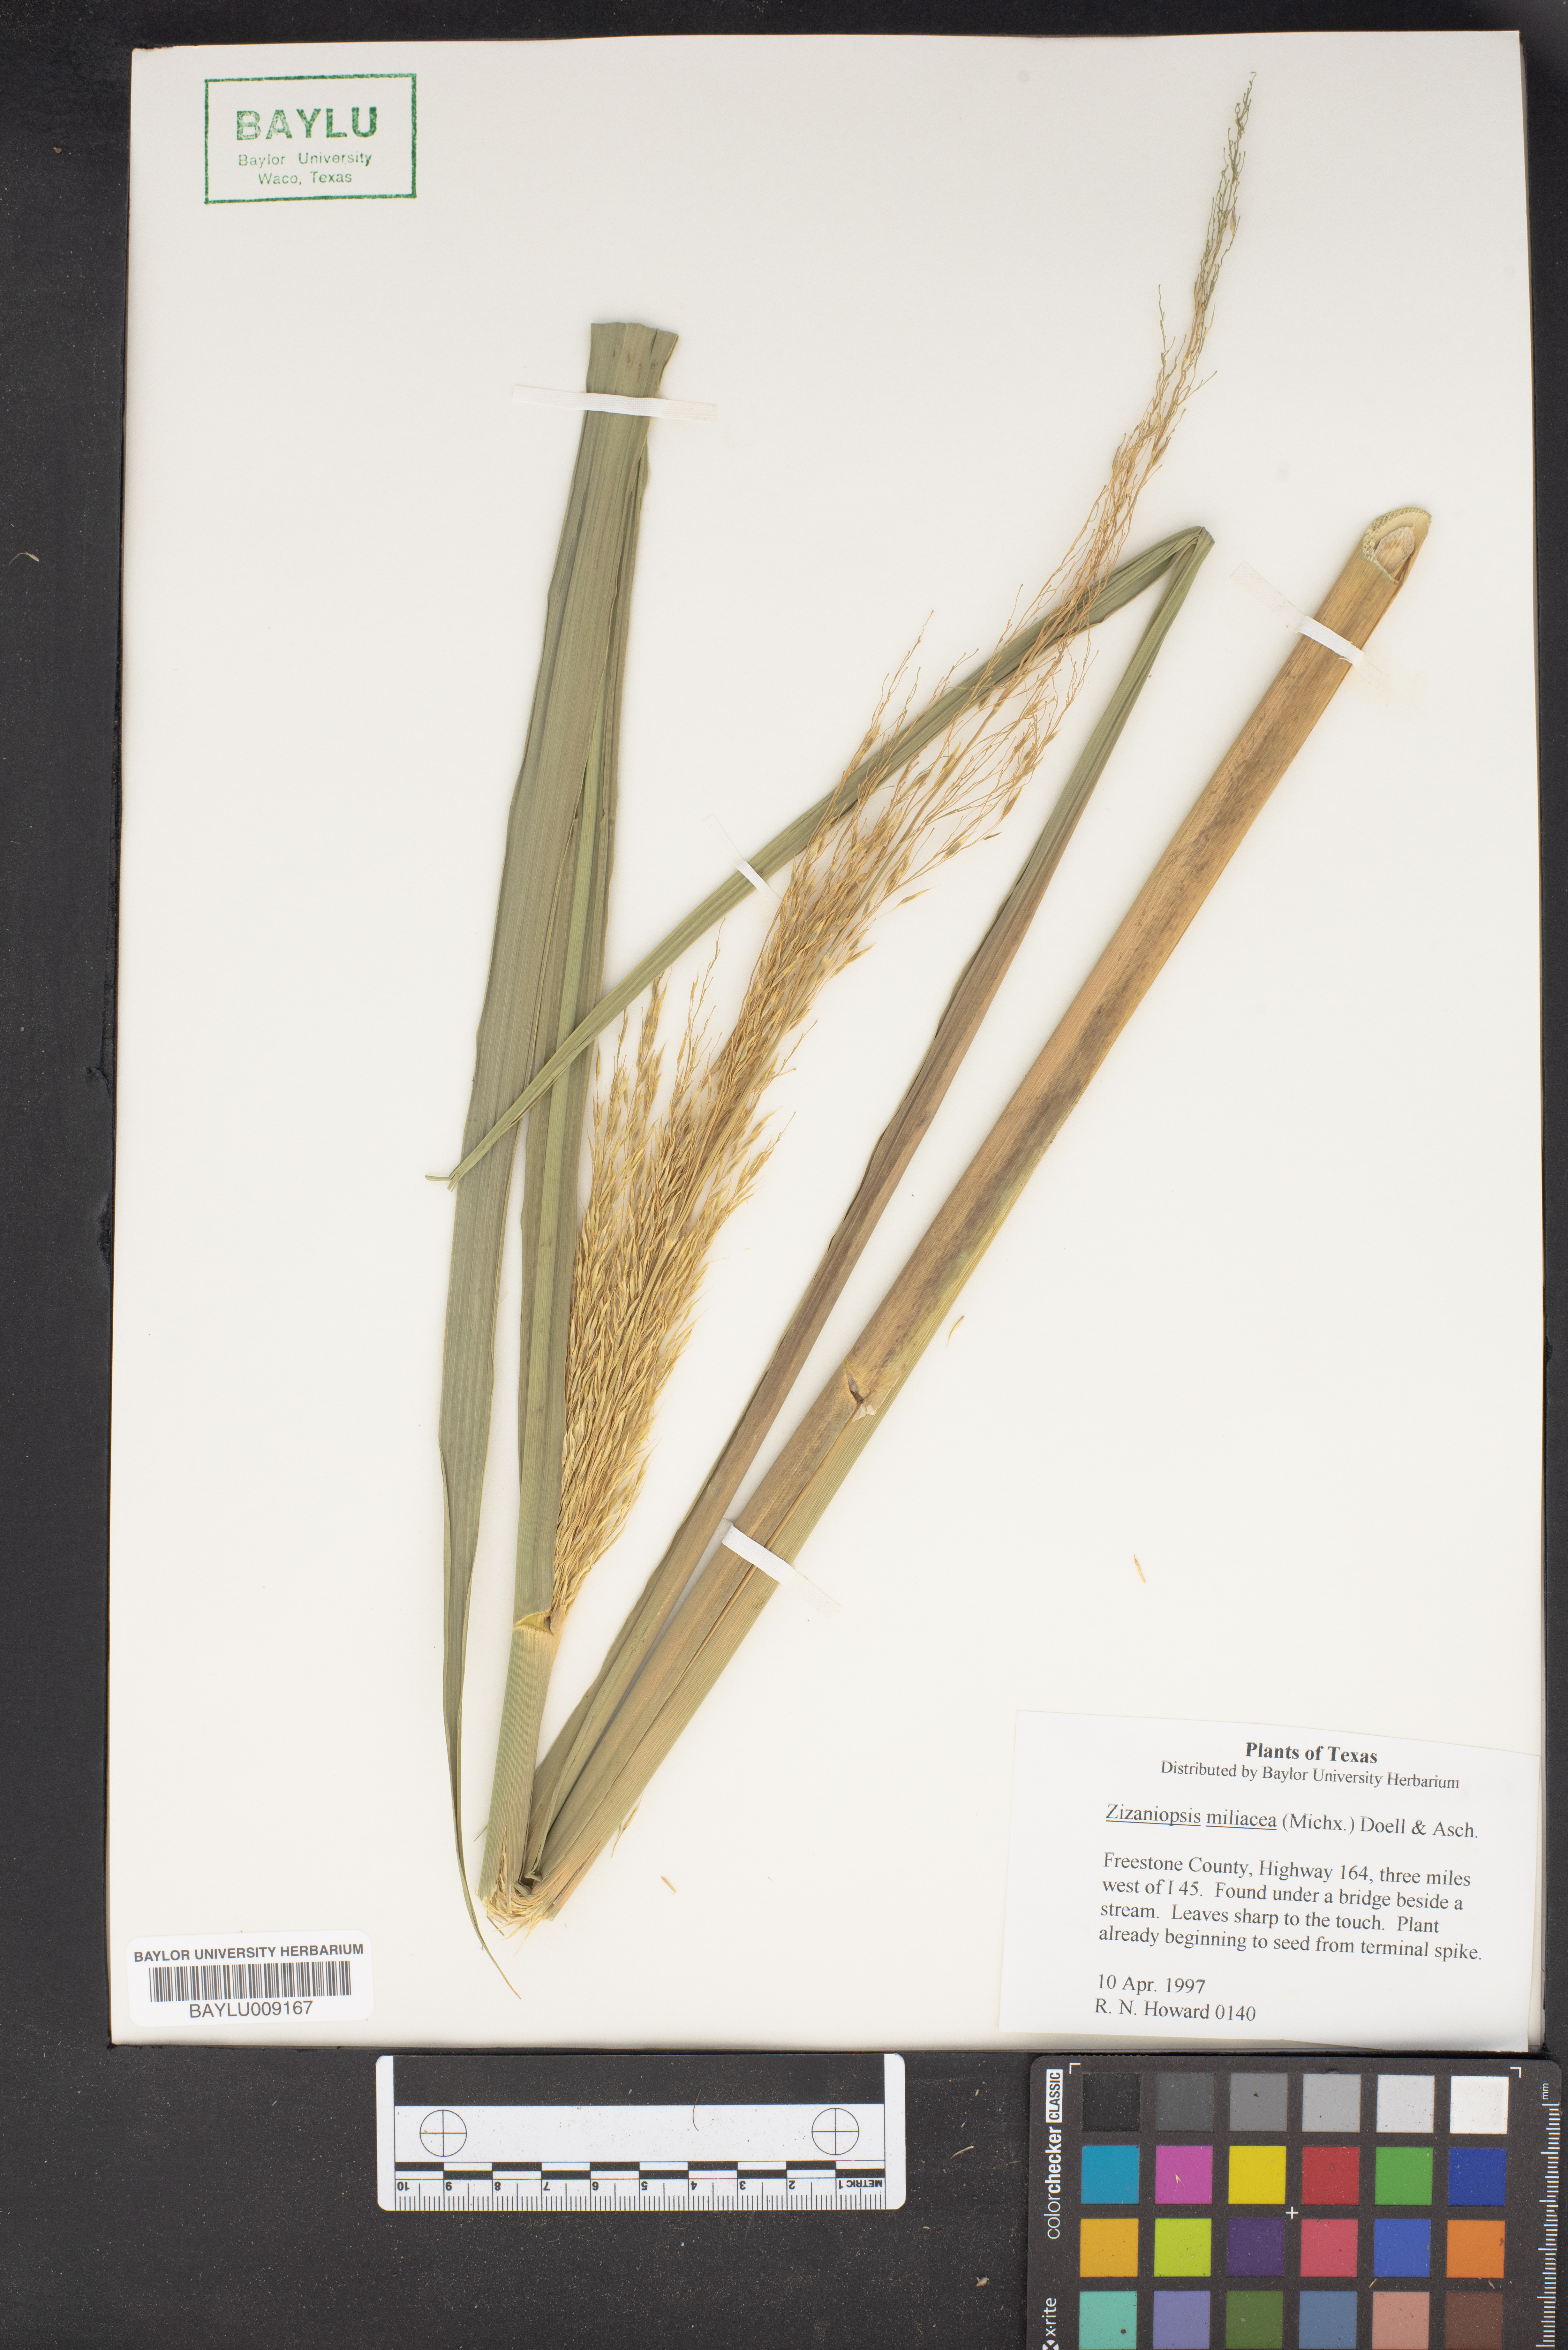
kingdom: Plantae
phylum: Tracheophyta
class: Liliopsida
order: Poales
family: Poaceae
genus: Zizaniopsis
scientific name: Zizaniopsis miliacea
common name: Giant-cutgrass
